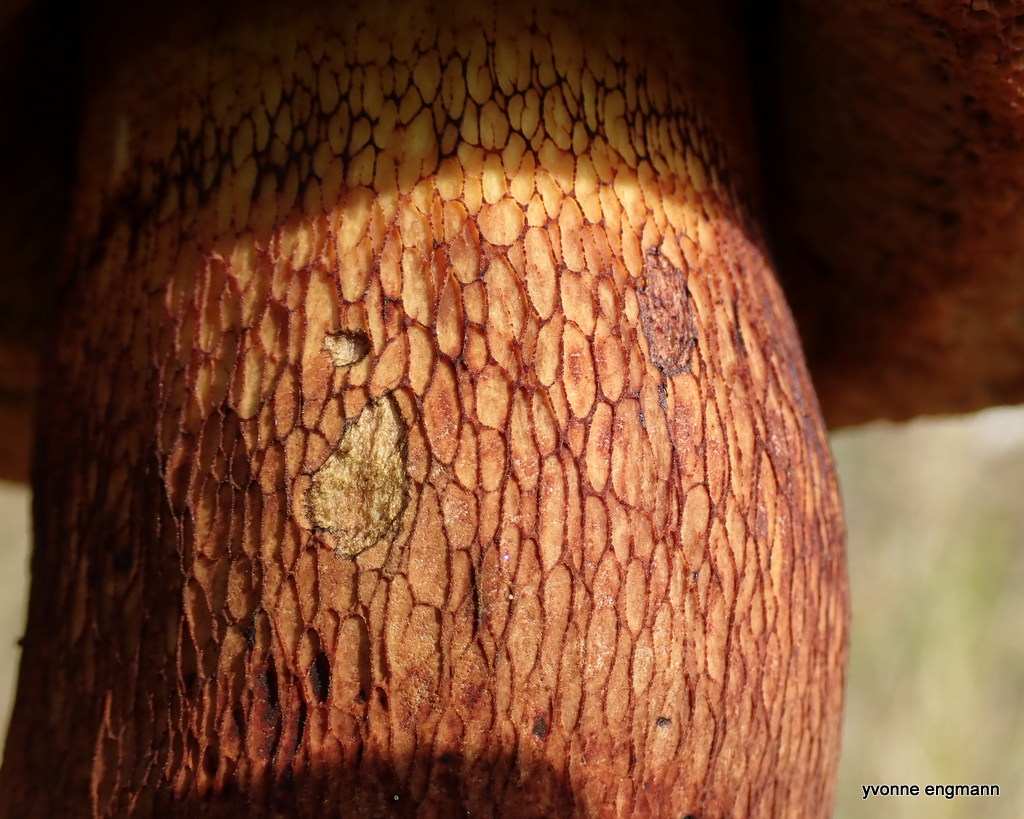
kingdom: Fungi
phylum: Basidiomycota
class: Agaricomycetes
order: Boletales
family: Boletaceae
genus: Suillellus
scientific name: Suillellus luridus
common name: netstokket indigorørhat
